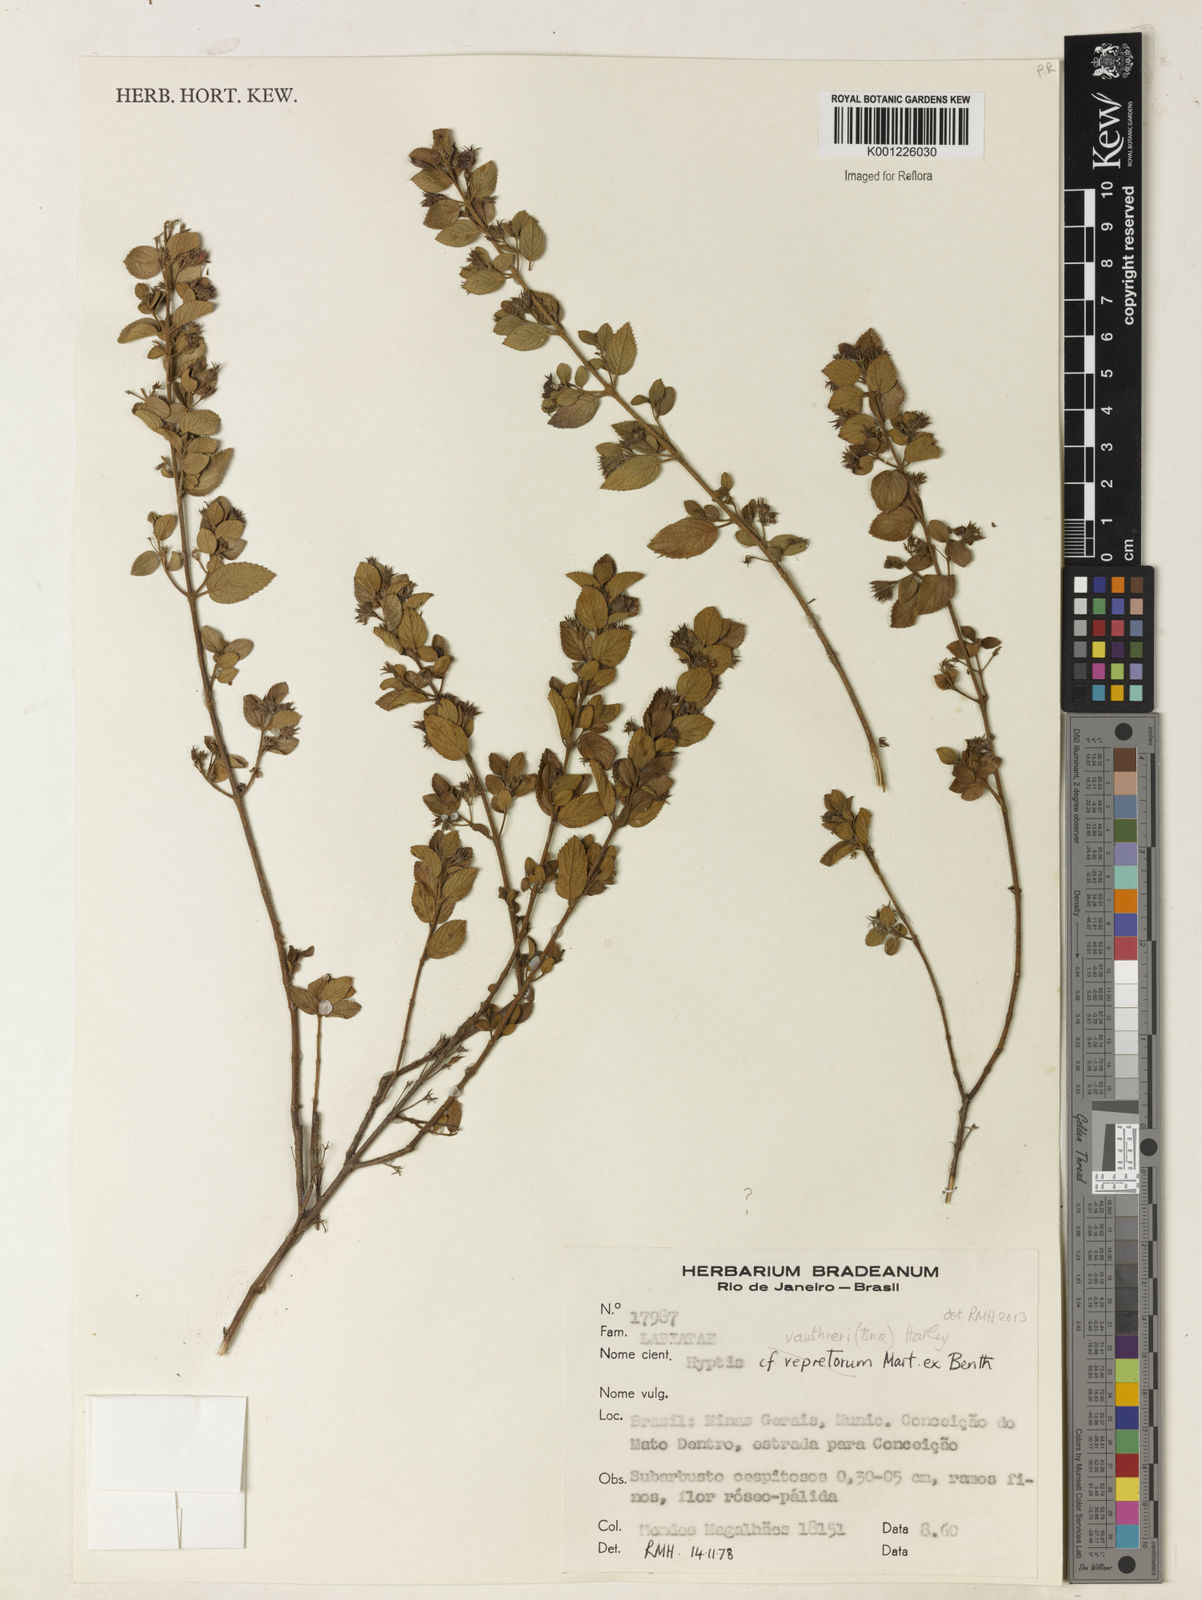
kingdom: Plantae
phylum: Tracheophyta
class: Magnoliopsida
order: Lamiales
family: Lamiaceae
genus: Hyptidendron
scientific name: Hyptidendron vauthieri
